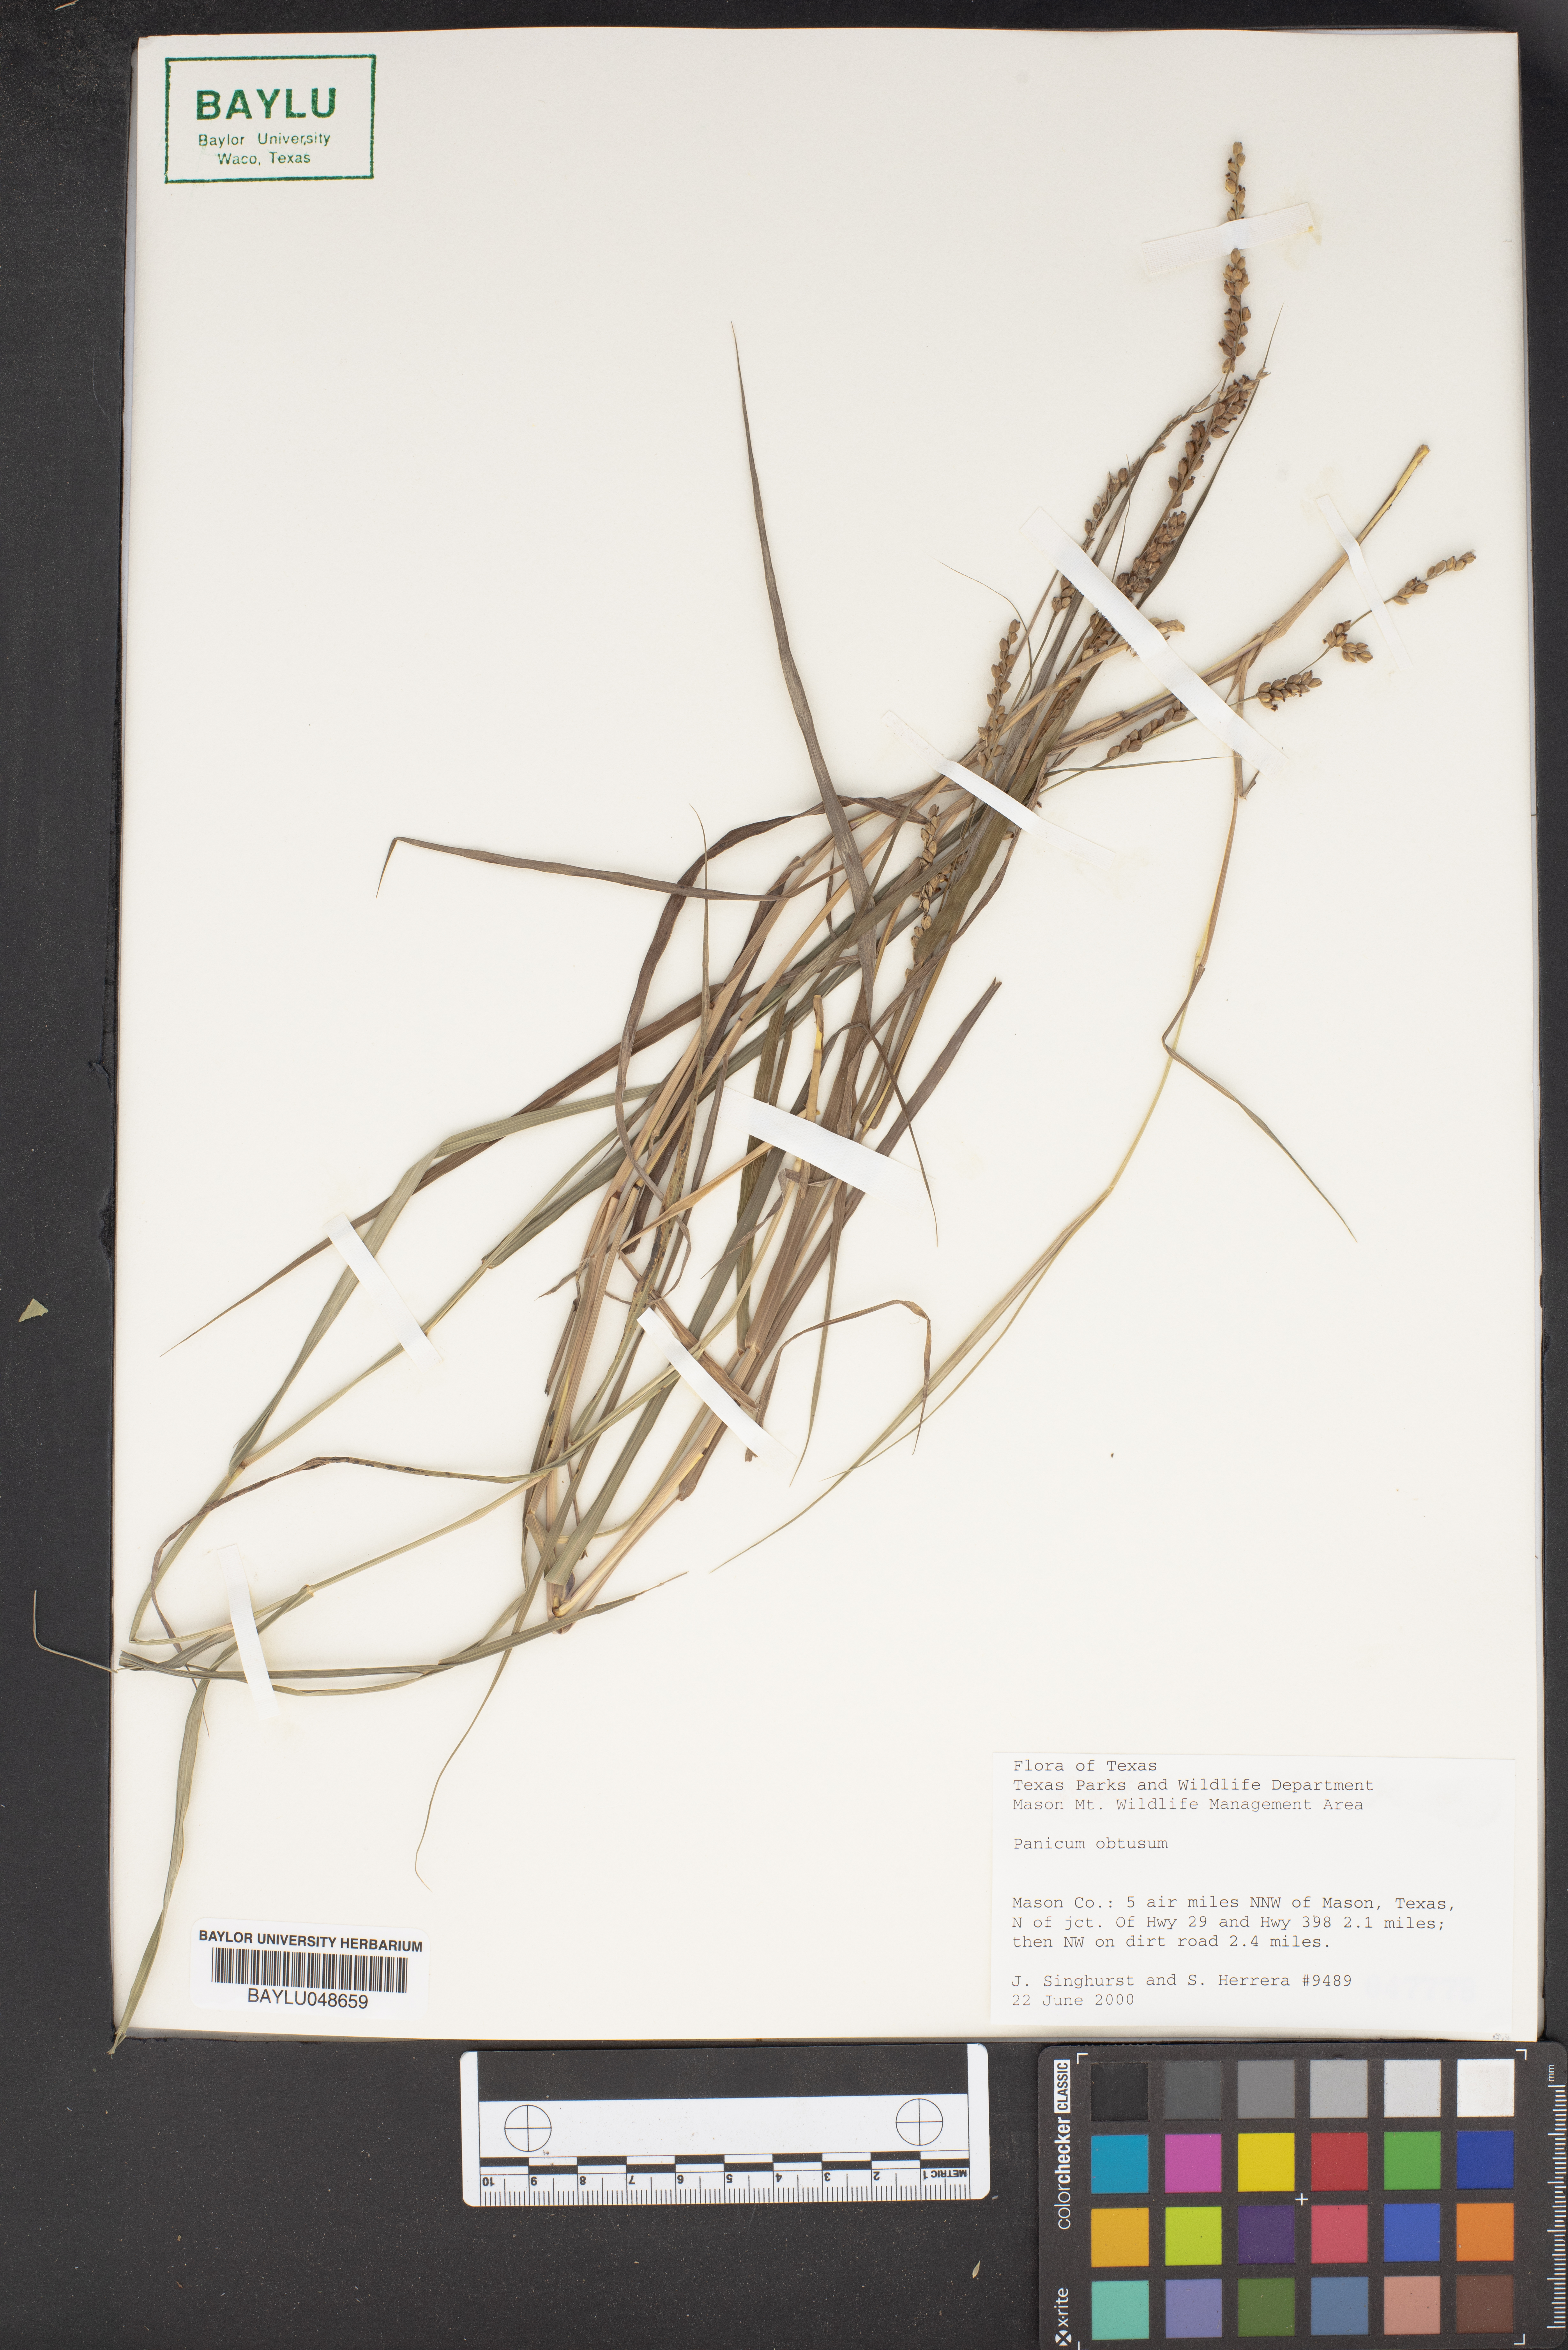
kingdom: Plantae
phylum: Tracheophyta
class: Liliopsida
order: Poales
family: Poaceae
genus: Hopia
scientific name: Hopia obtusa
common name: Vine-mesquite
